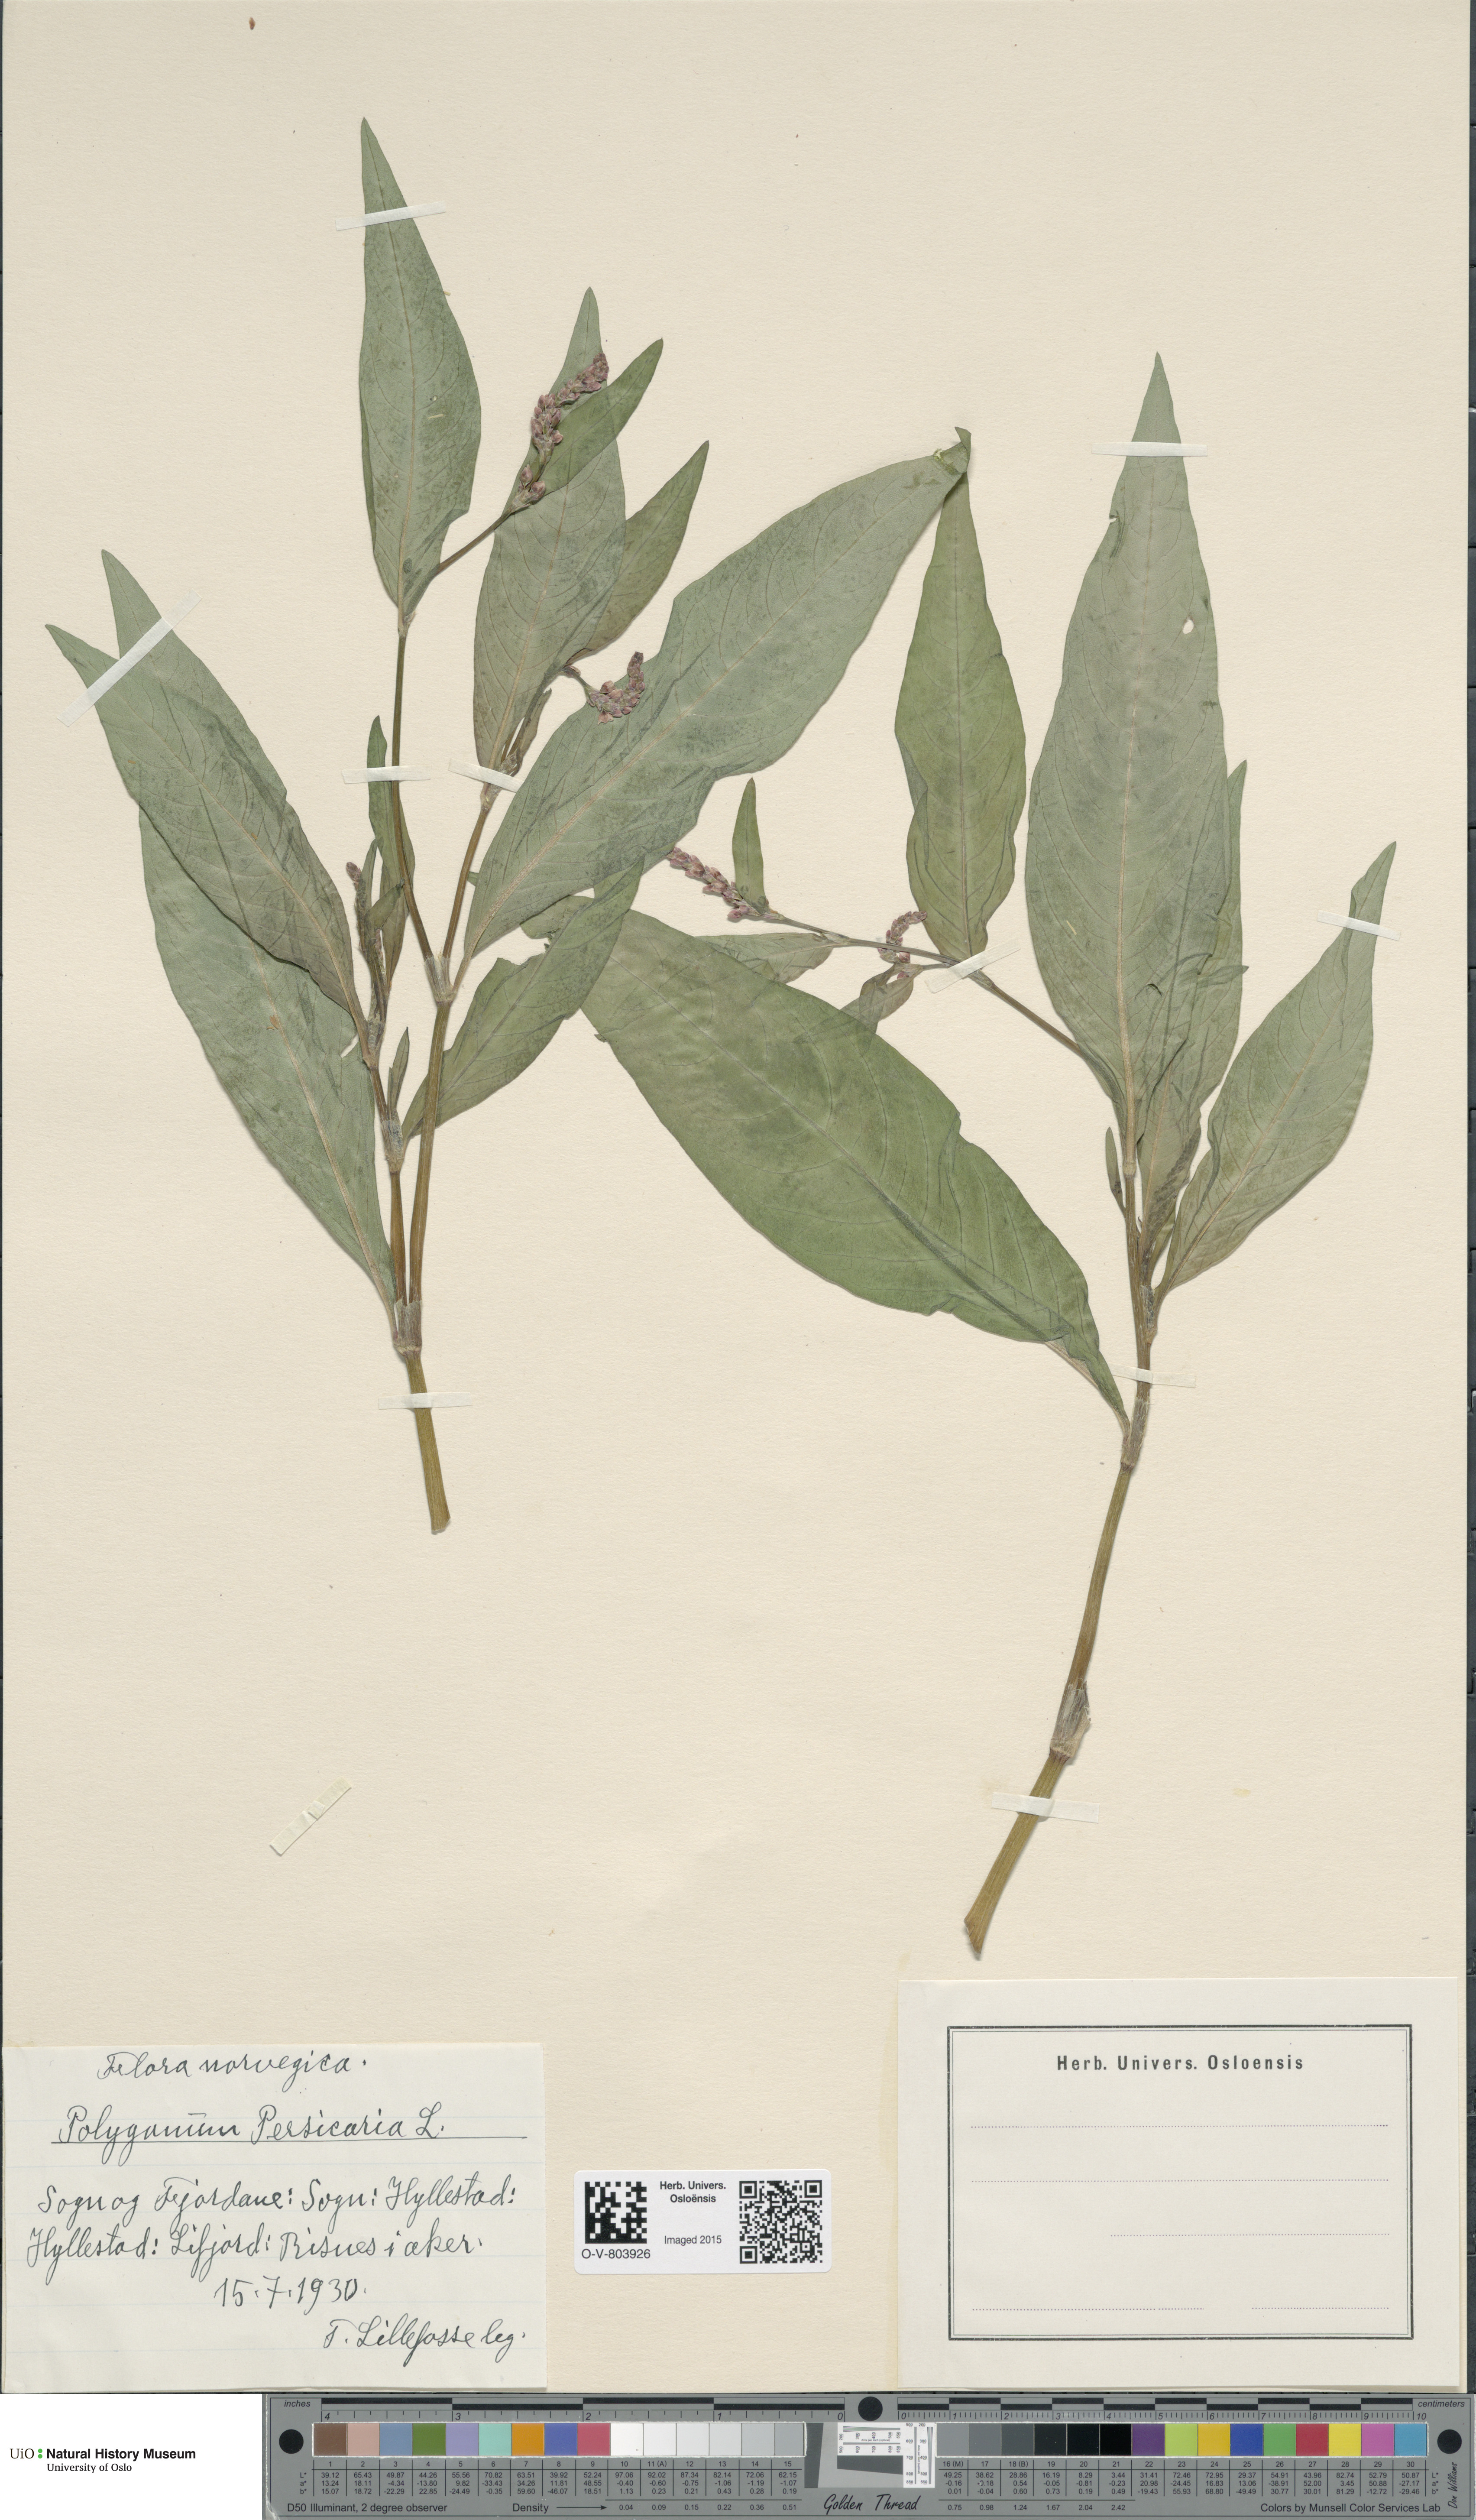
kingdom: Plantae
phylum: Tracheophyta
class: Magnoliopsida
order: Caryophyllales
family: Polygonaceae
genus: Persicaria
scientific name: Persicaria maculosa
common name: Redshank
